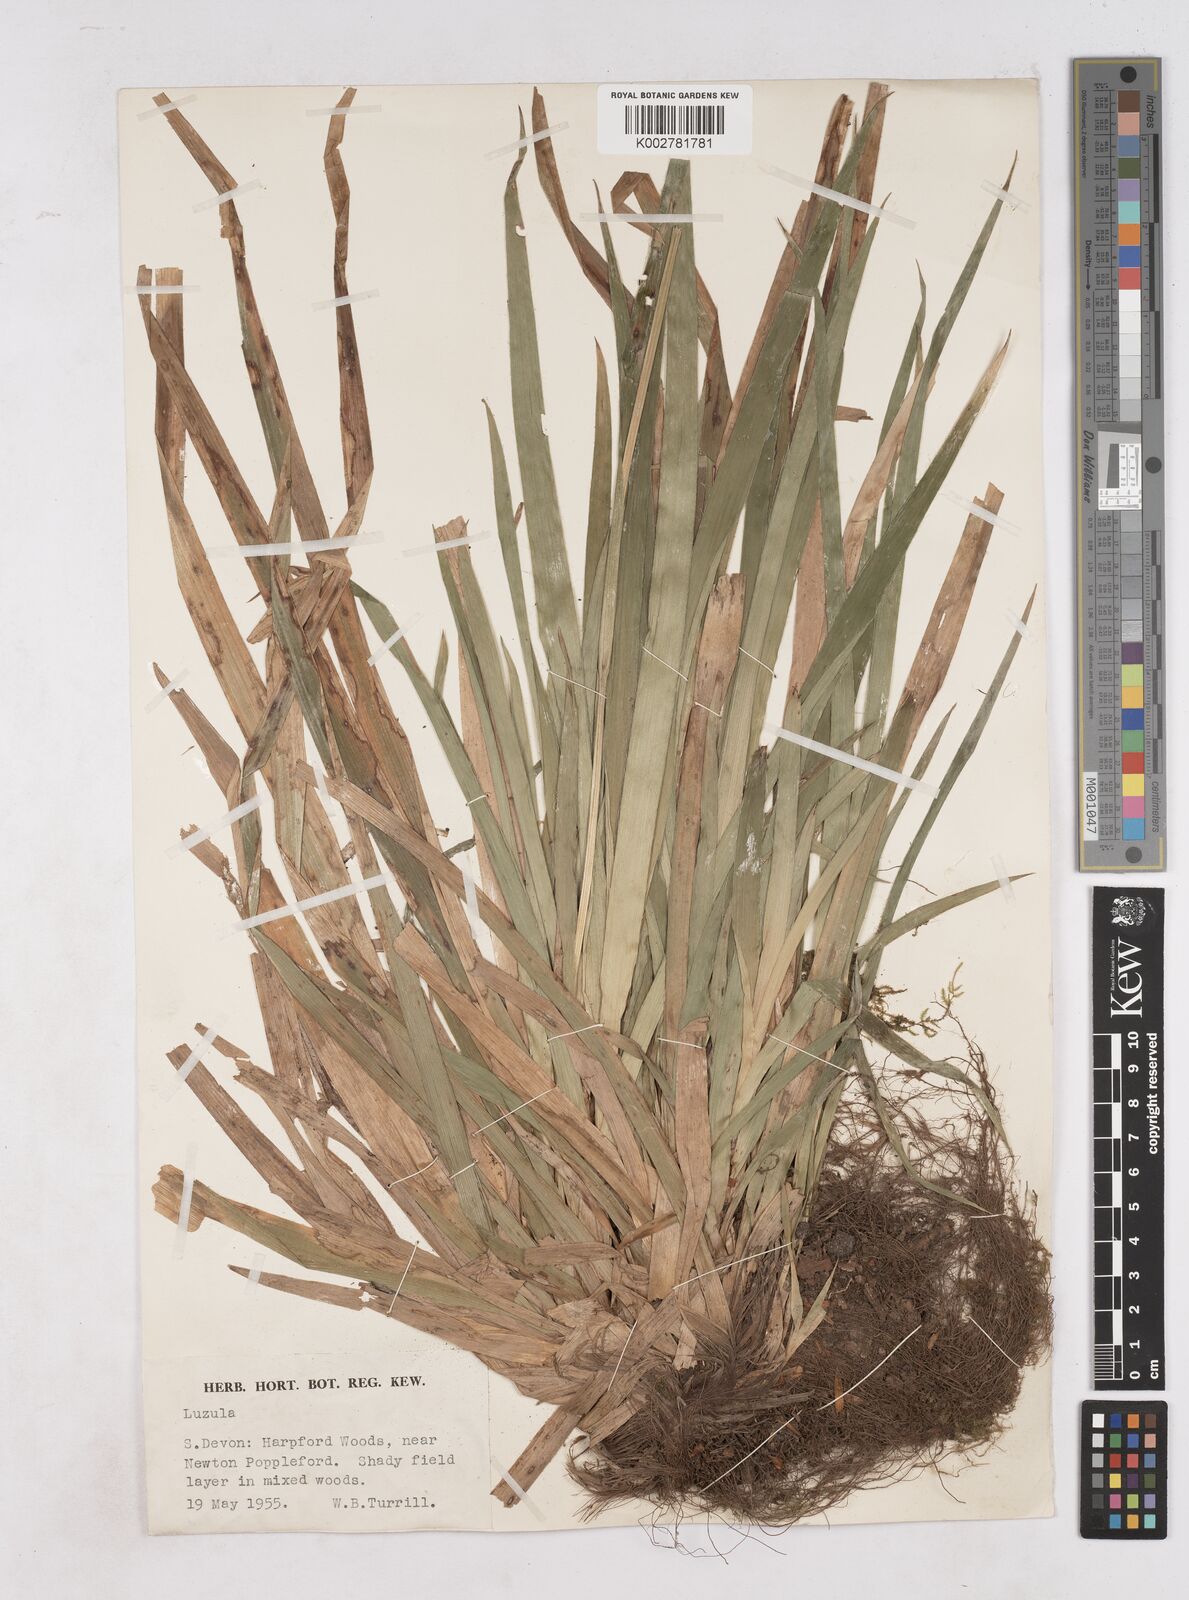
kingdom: Plantae
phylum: Tracheophyta
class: Liliopsida
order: Poales
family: Juncaceae
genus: Luzula
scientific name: Luzula sylvatica
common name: Great wood-rush
